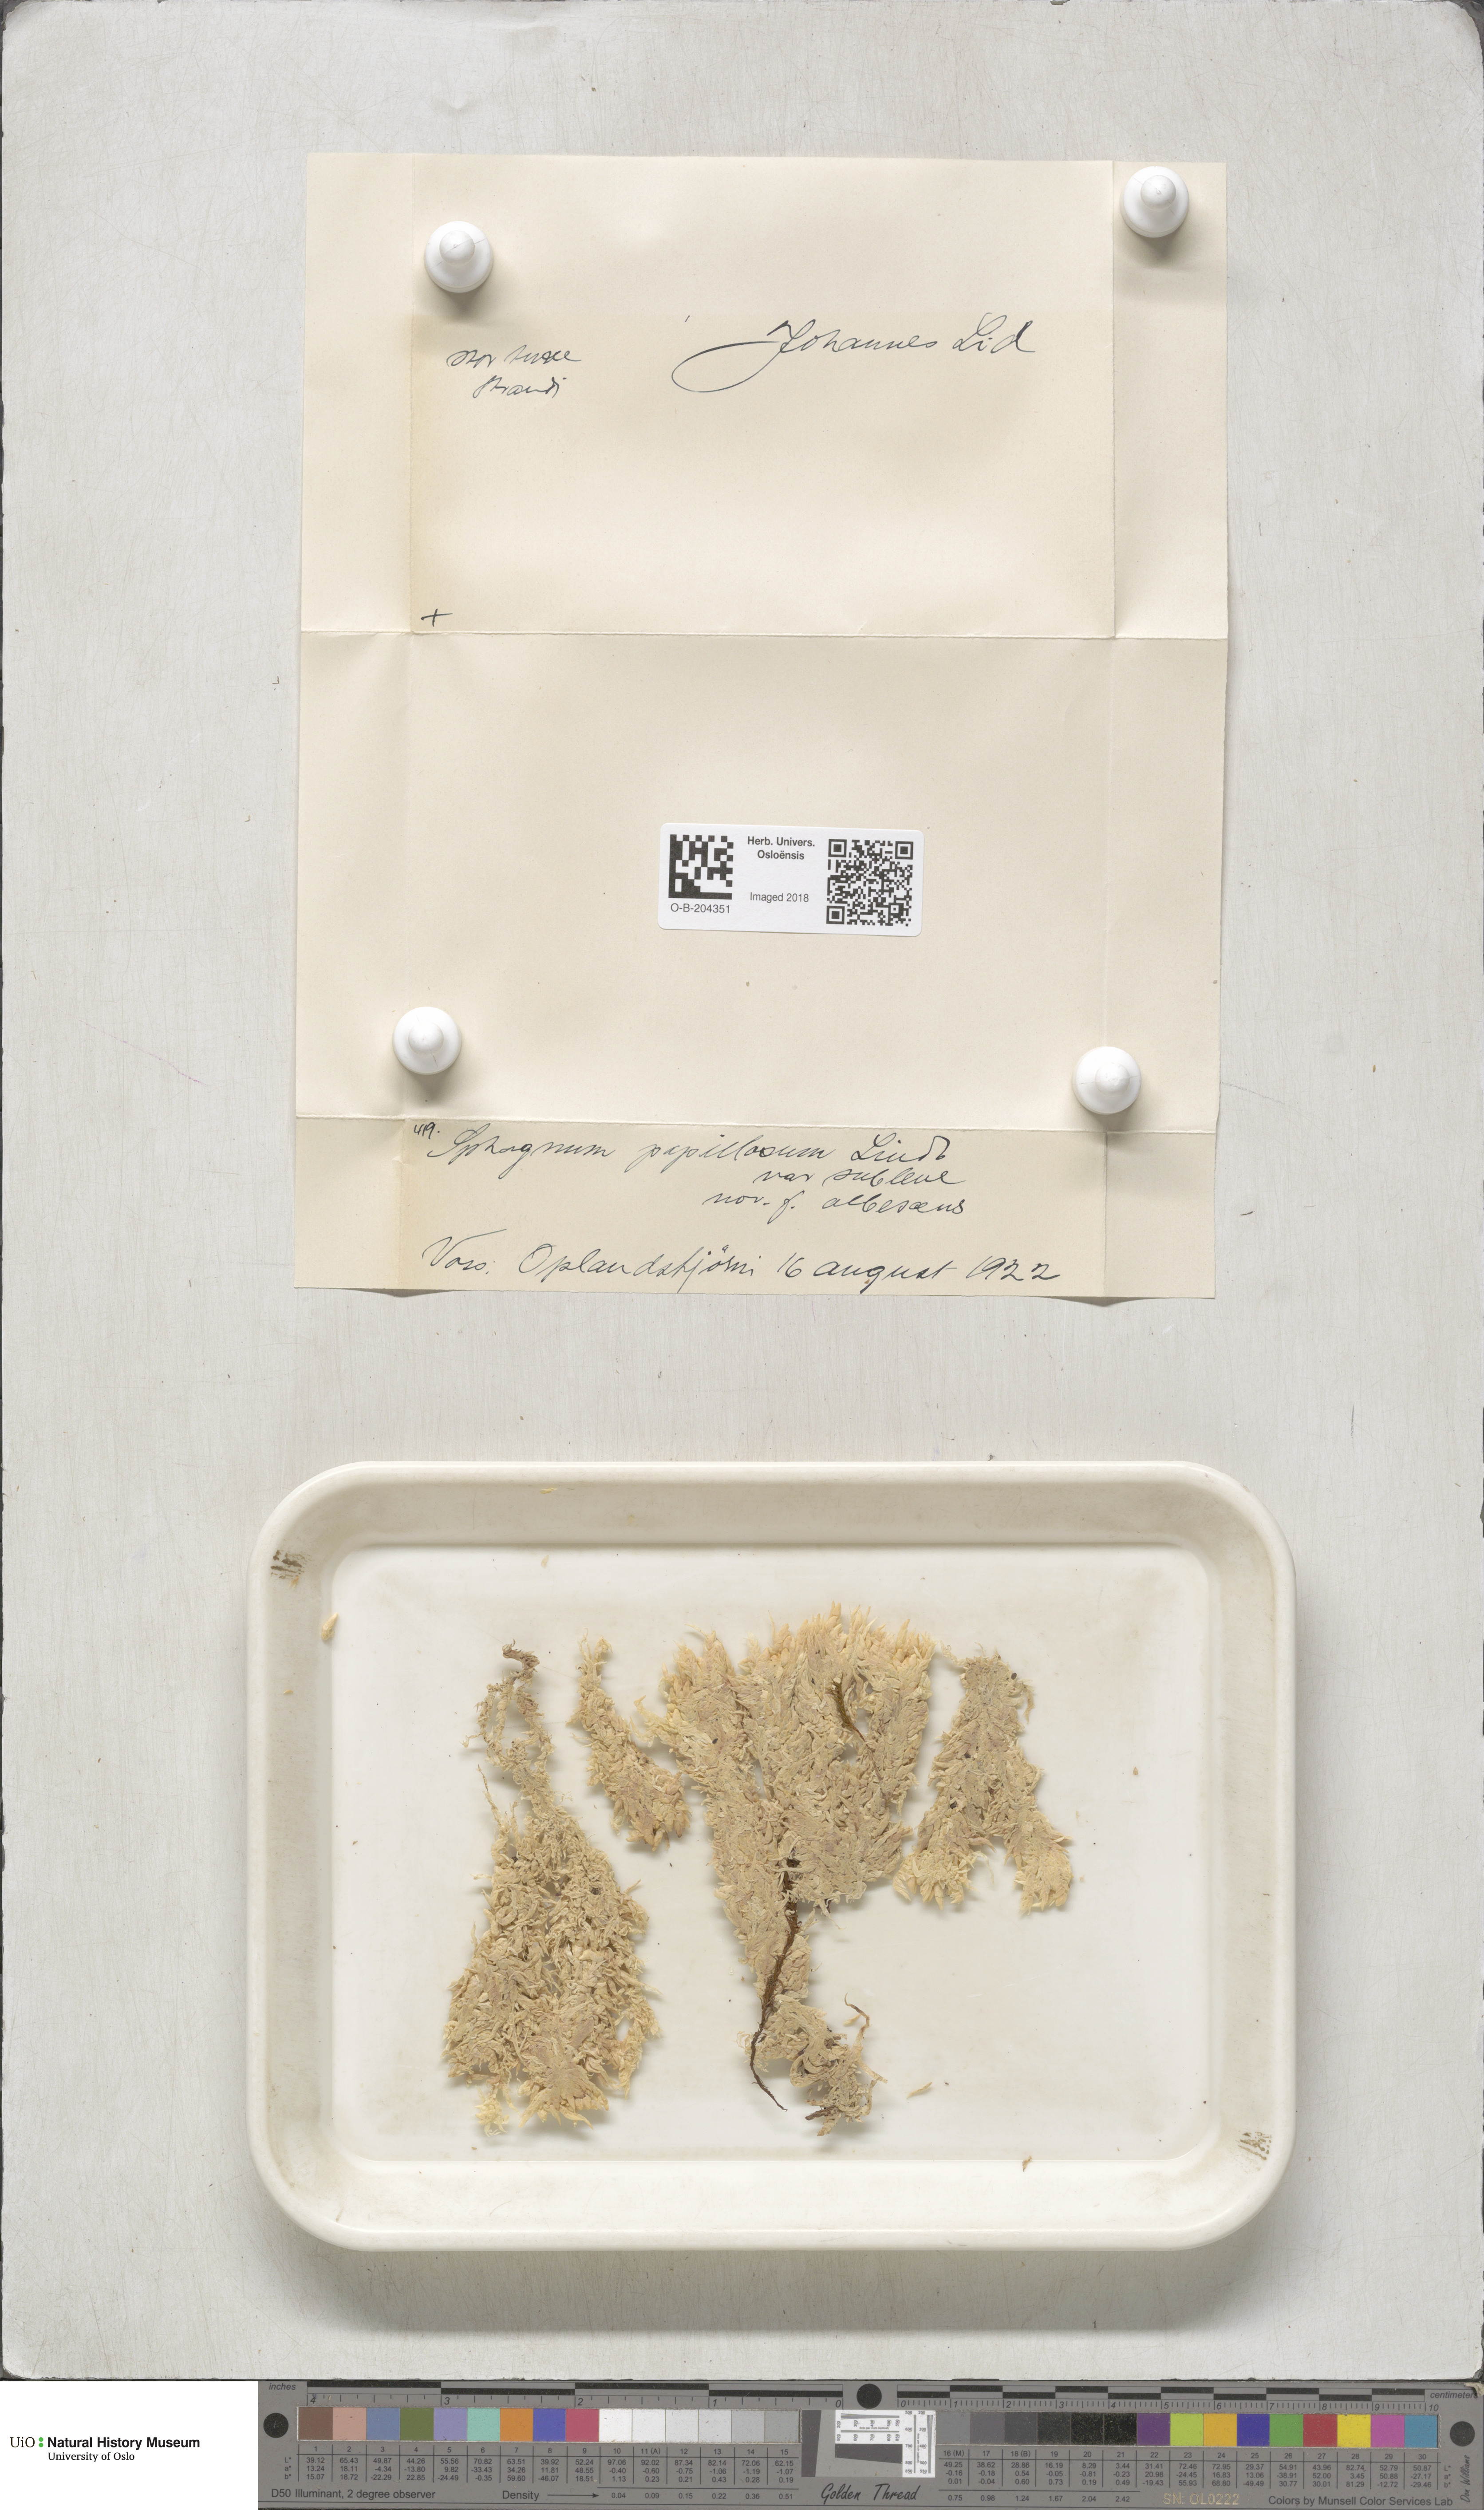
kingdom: Plantae
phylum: Bryophyta
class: Sphagnopsida
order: Sphagnales
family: Sphagnaceae
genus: Sphagnum
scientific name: Sphagnum papillosum
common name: Papillose peat moss
